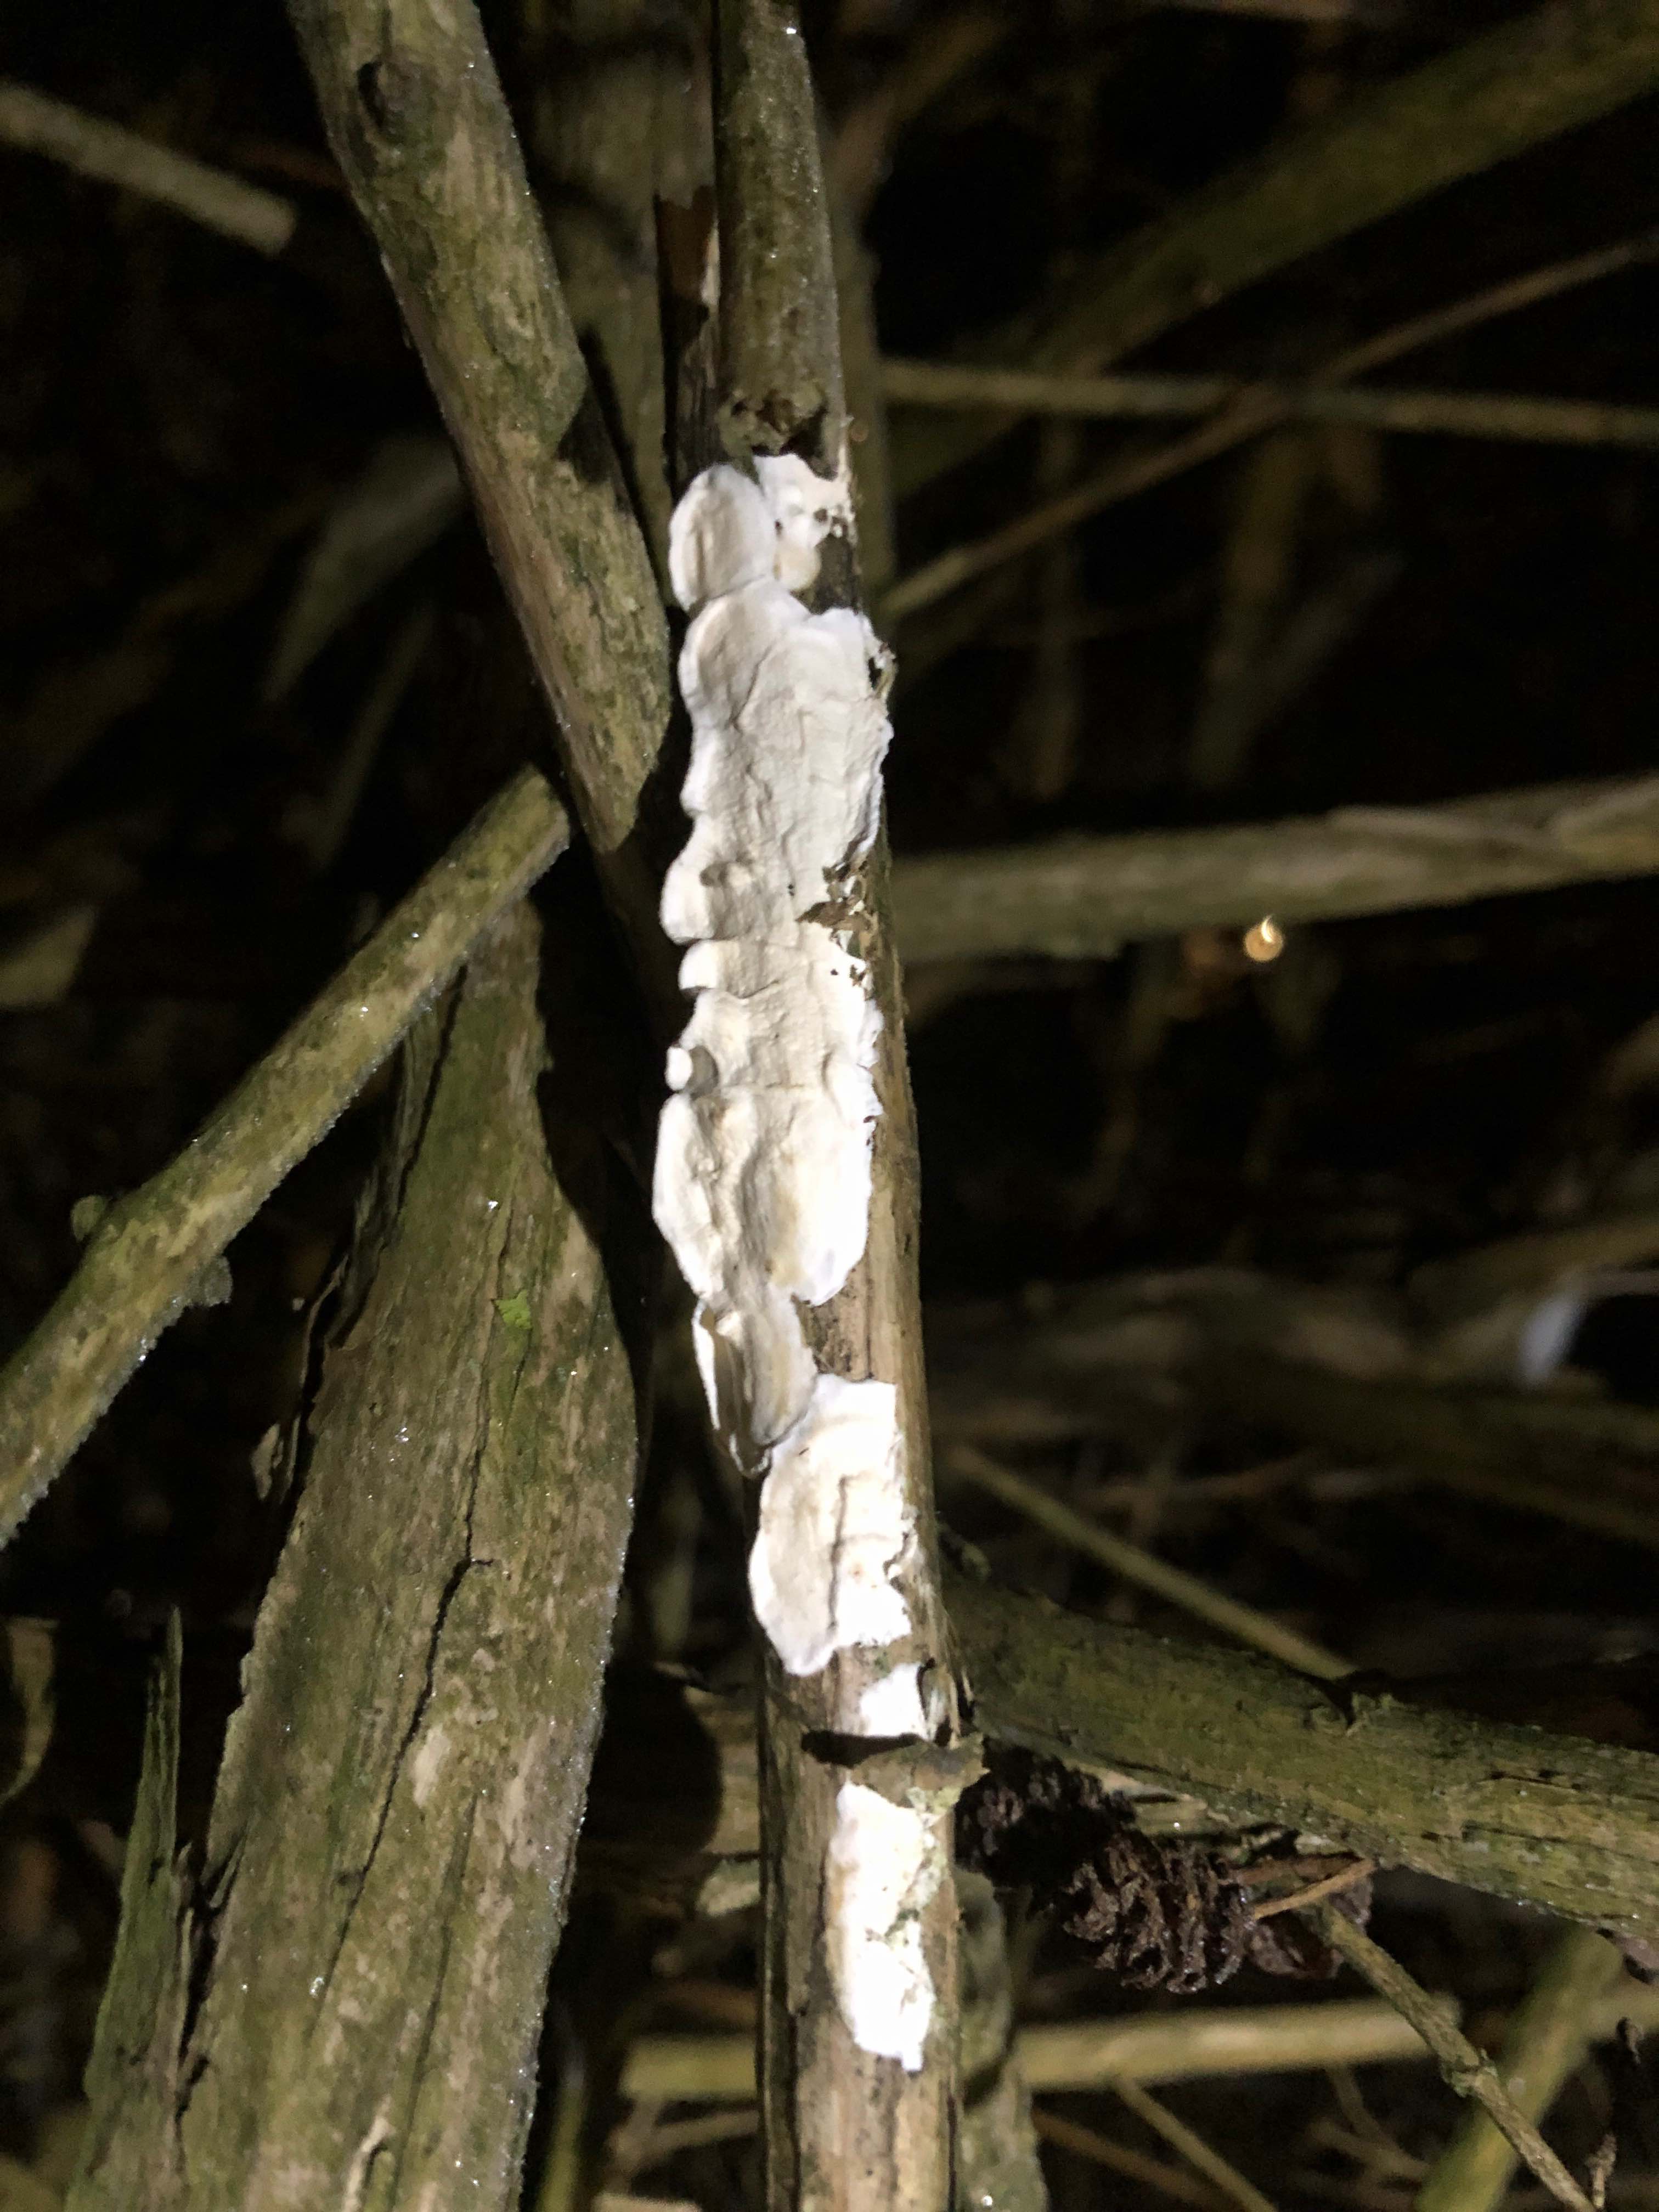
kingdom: Fungi
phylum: Basidiomycota
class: Agaricomycetes
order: Polyporales
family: Irpicaceae
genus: Byssomerulius
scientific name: Byssomerulius corium
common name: læder-åresvamp
